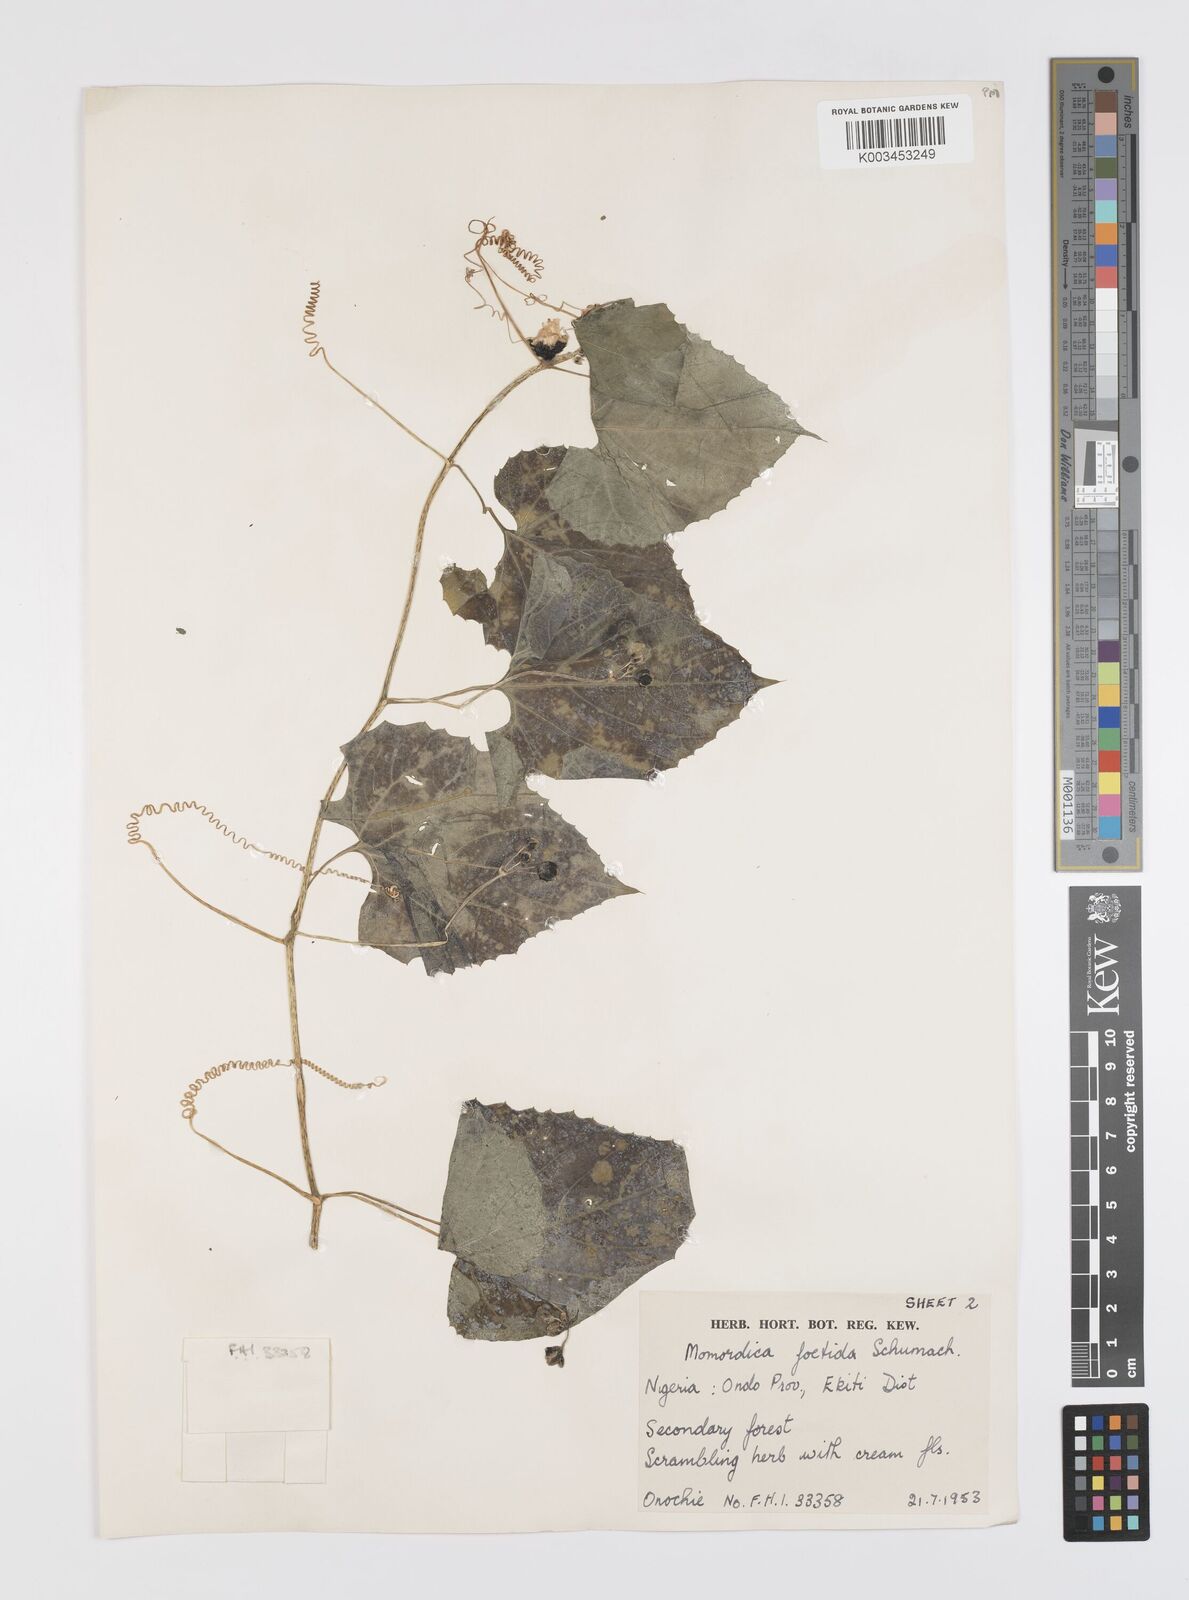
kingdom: Plantae
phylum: Tracheophyta
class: Magnoliopsida
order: Cucurbitales
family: Cucurbitaceae
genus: Momordica
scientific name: Momordica foetida
